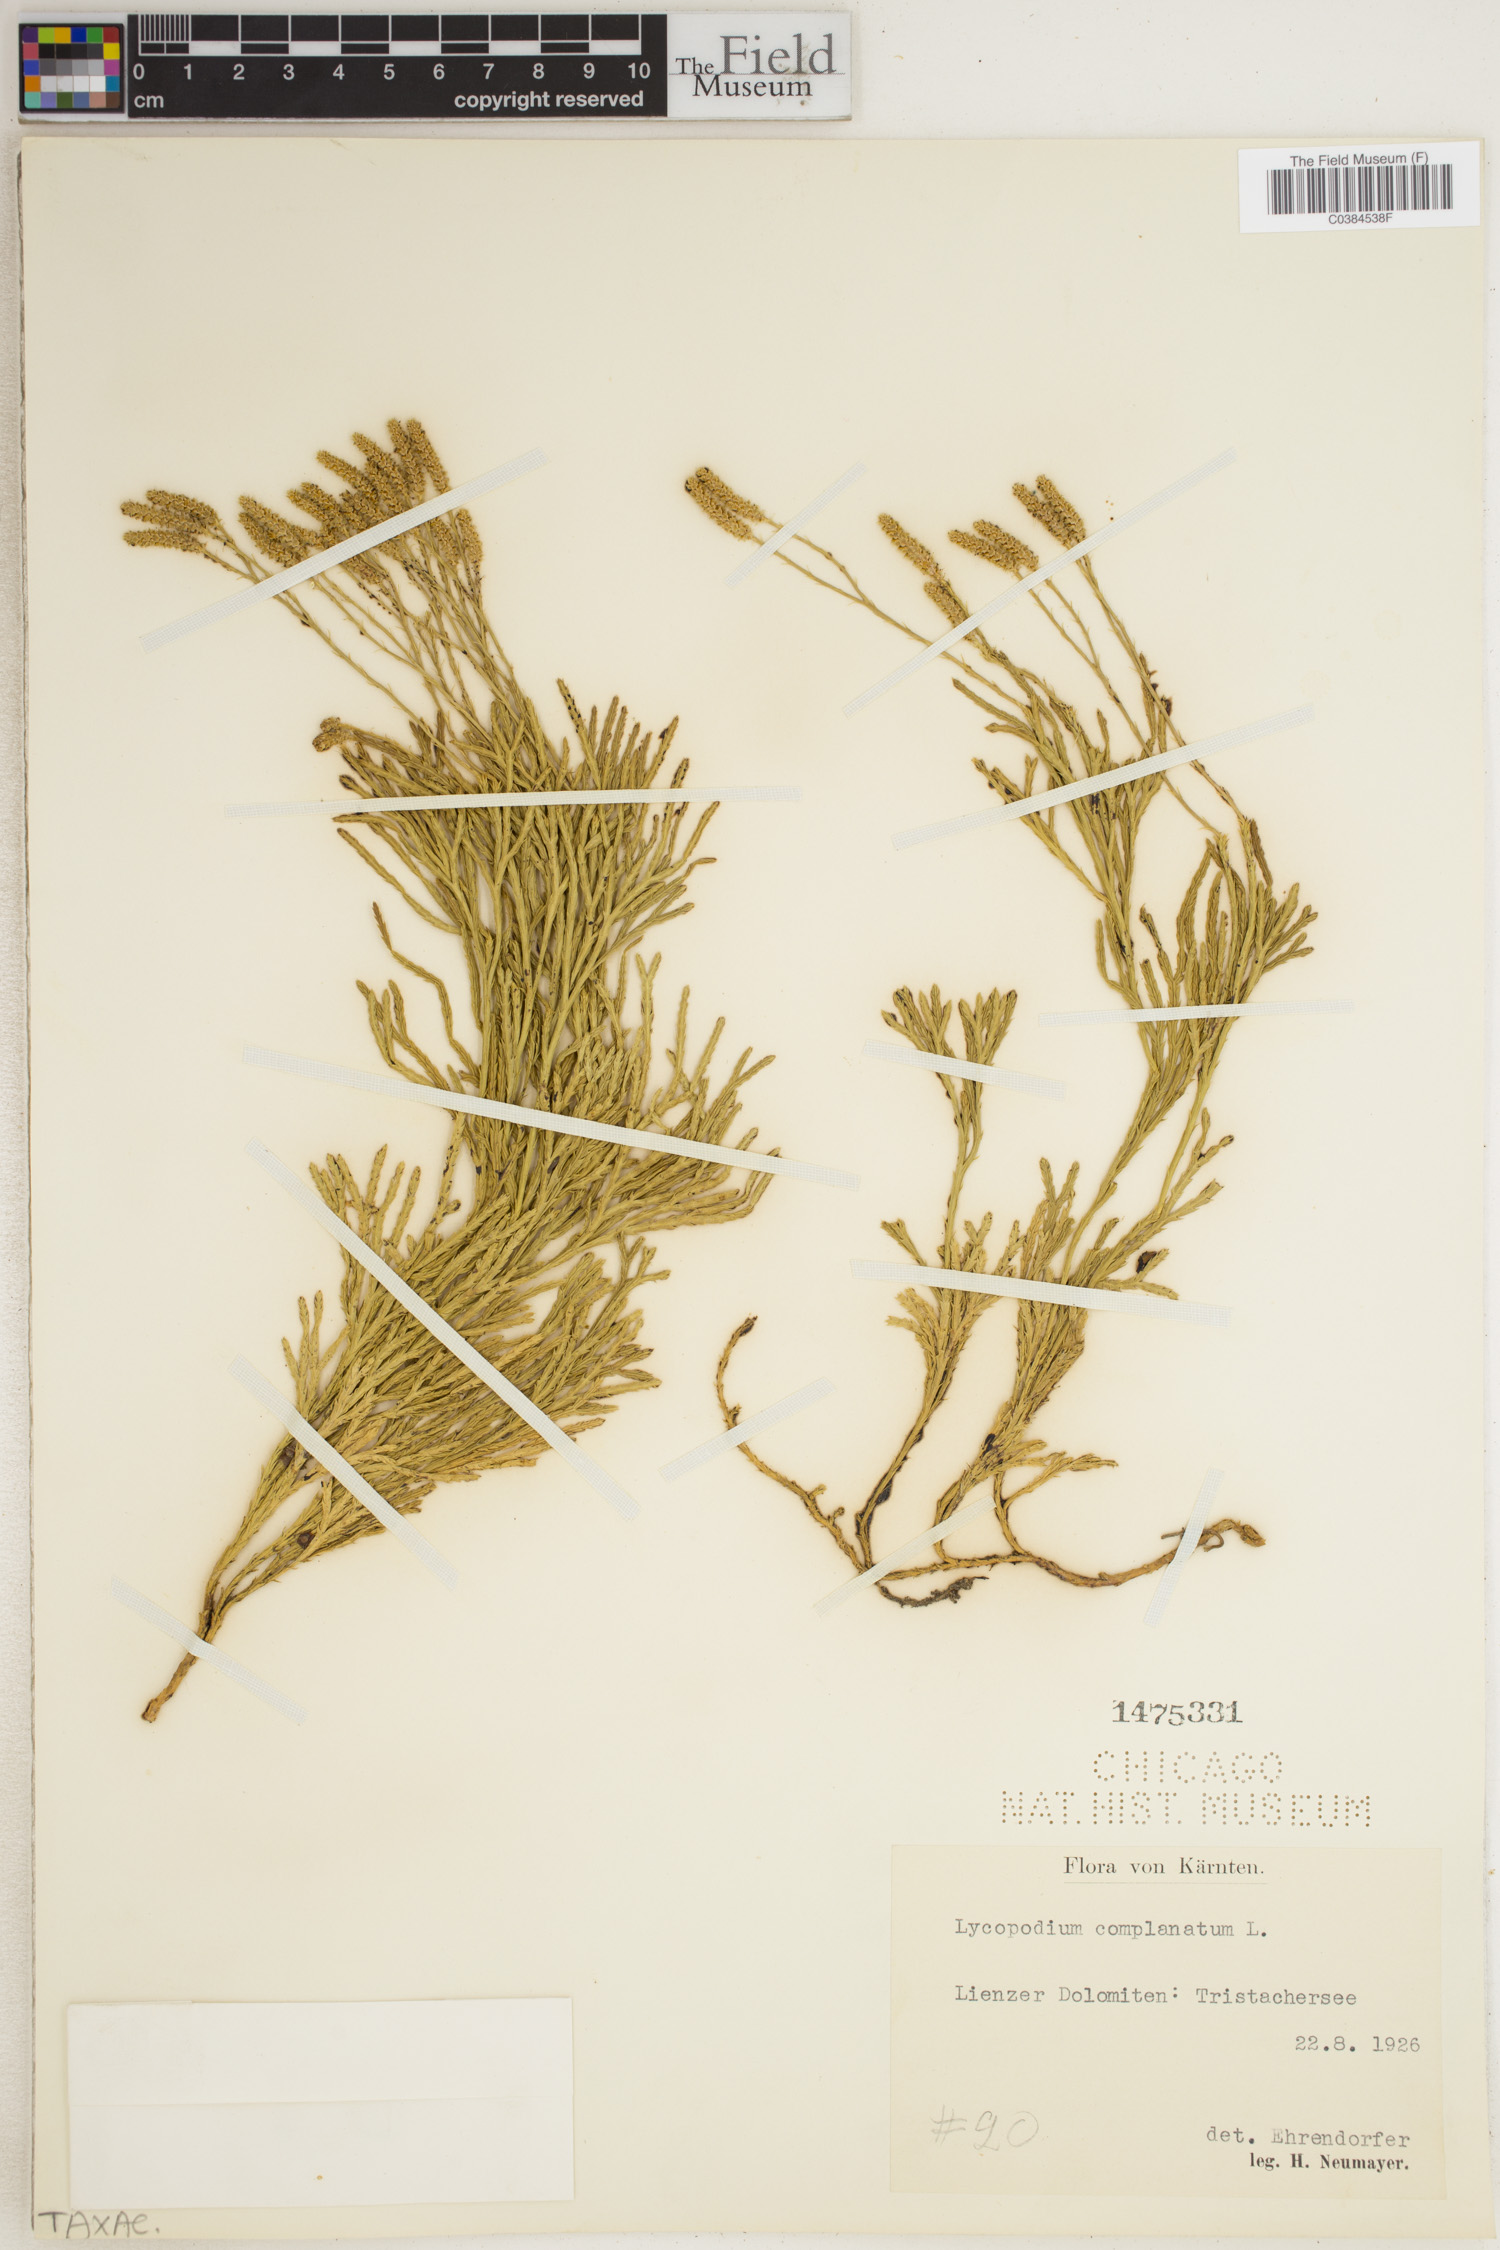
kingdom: Plantae
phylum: Tracheophyta
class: Lycopodiopsida
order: Lycopodiales
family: Lycopodiaceae
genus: Diphasiastrum
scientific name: Diphasiastrum complanatum
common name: Northern running-pine
